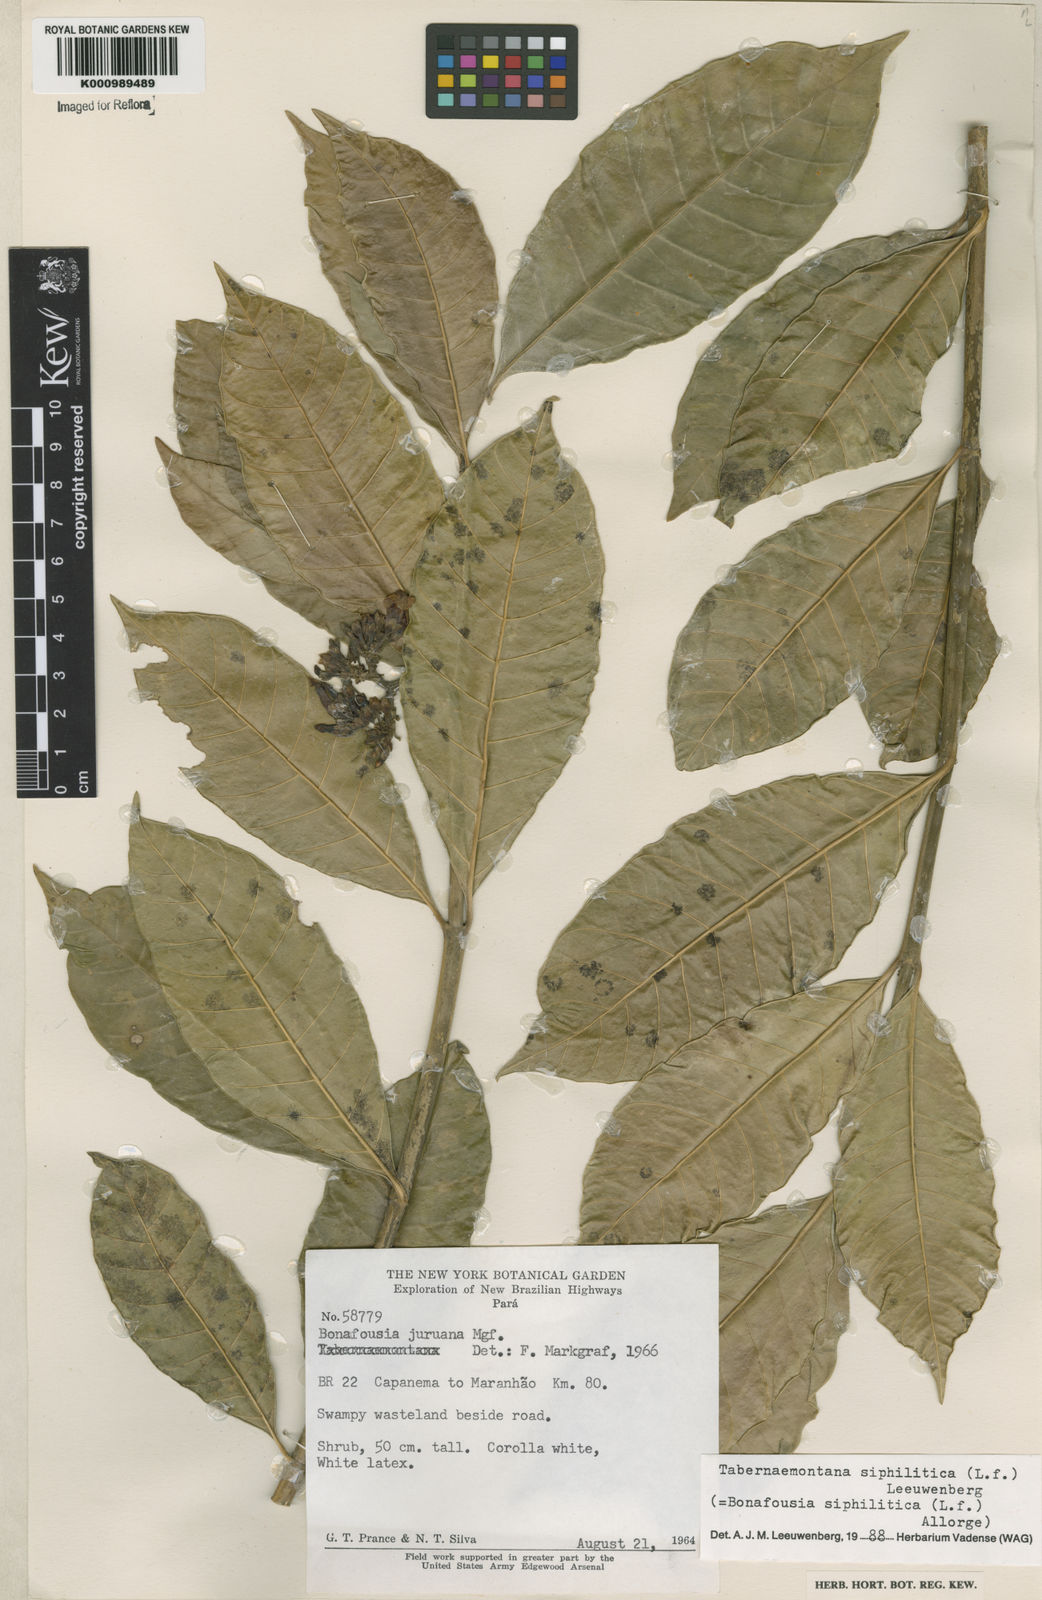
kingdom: Plantae
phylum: Tracheophyta
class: Magnoliopsida
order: Gentianales
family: Apocynaceae
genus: Tabernaemontana
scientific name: Tabernaemontana siphilitica
